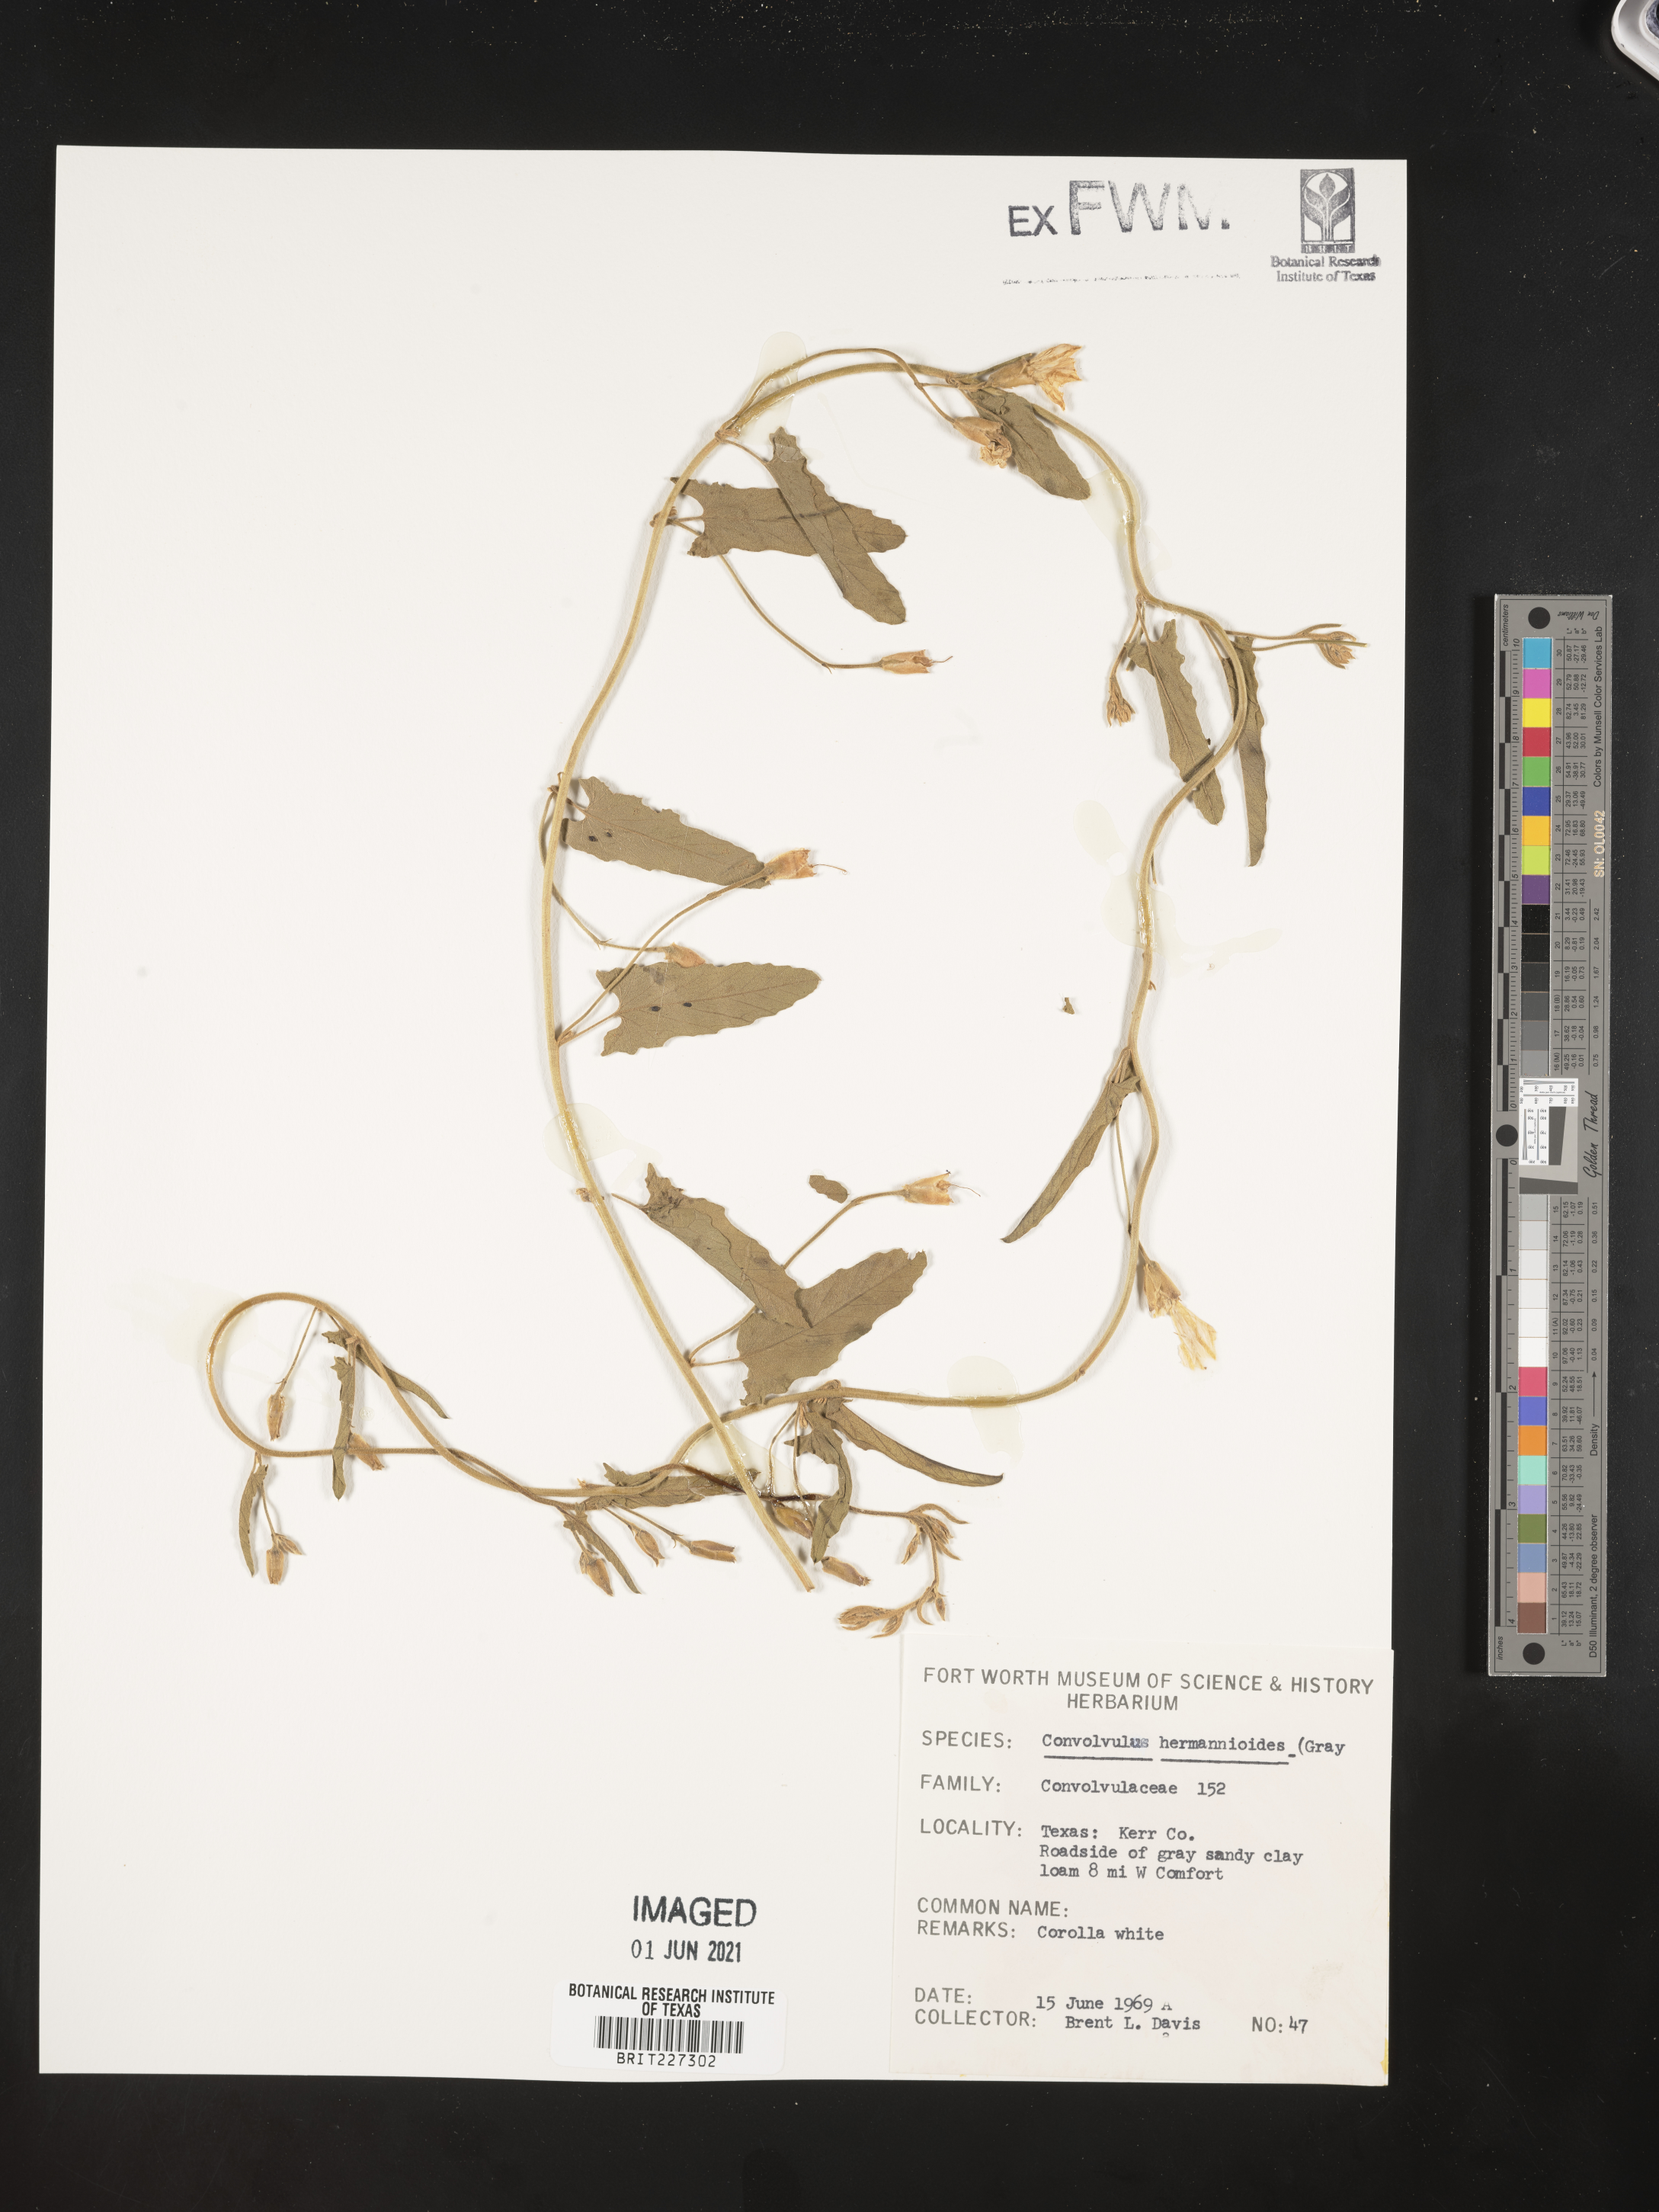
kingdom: Plantae
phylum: Tracheophyta
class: Magnoliopsida
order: Solanales
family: Convolvulaceae
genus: Convolvulus
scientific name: Convolvulus equitans
